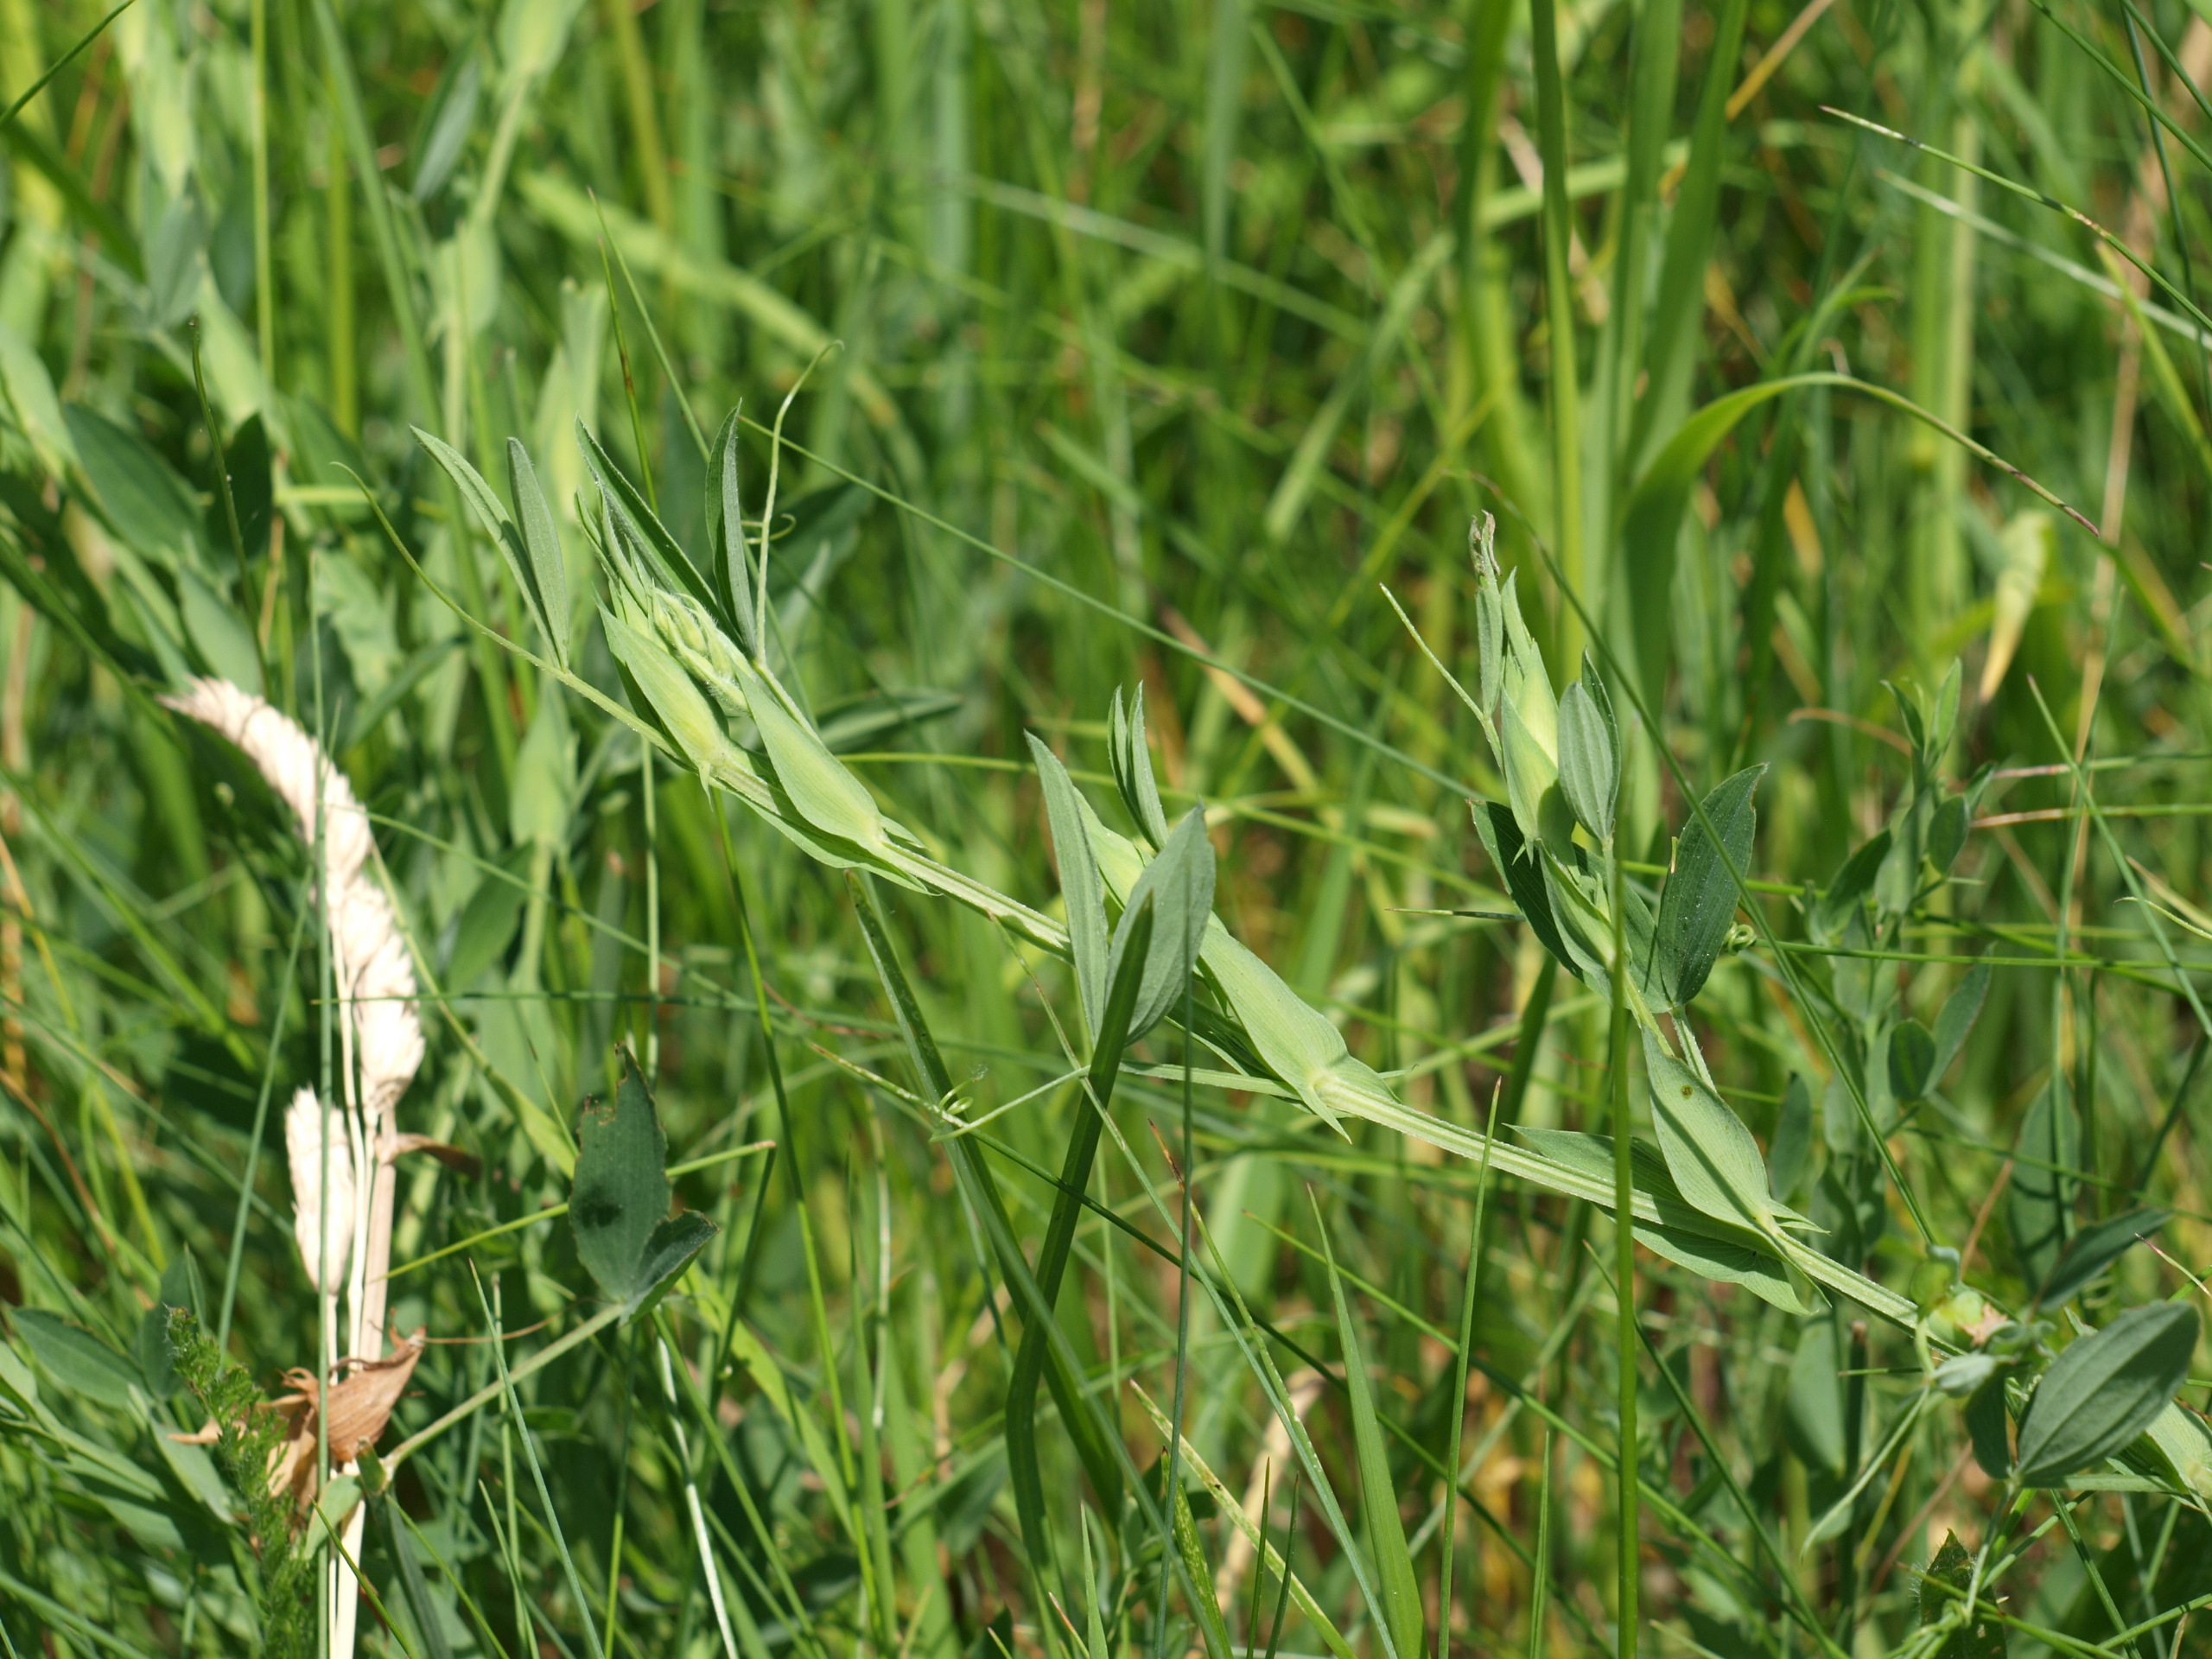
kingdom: Plantae
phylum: Tracheophyta
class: Magnoliopsida
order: Fabales
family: Fabaceae
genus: Lathyrus
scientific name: Lathyrus pratensis
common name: Gul fladbælg
